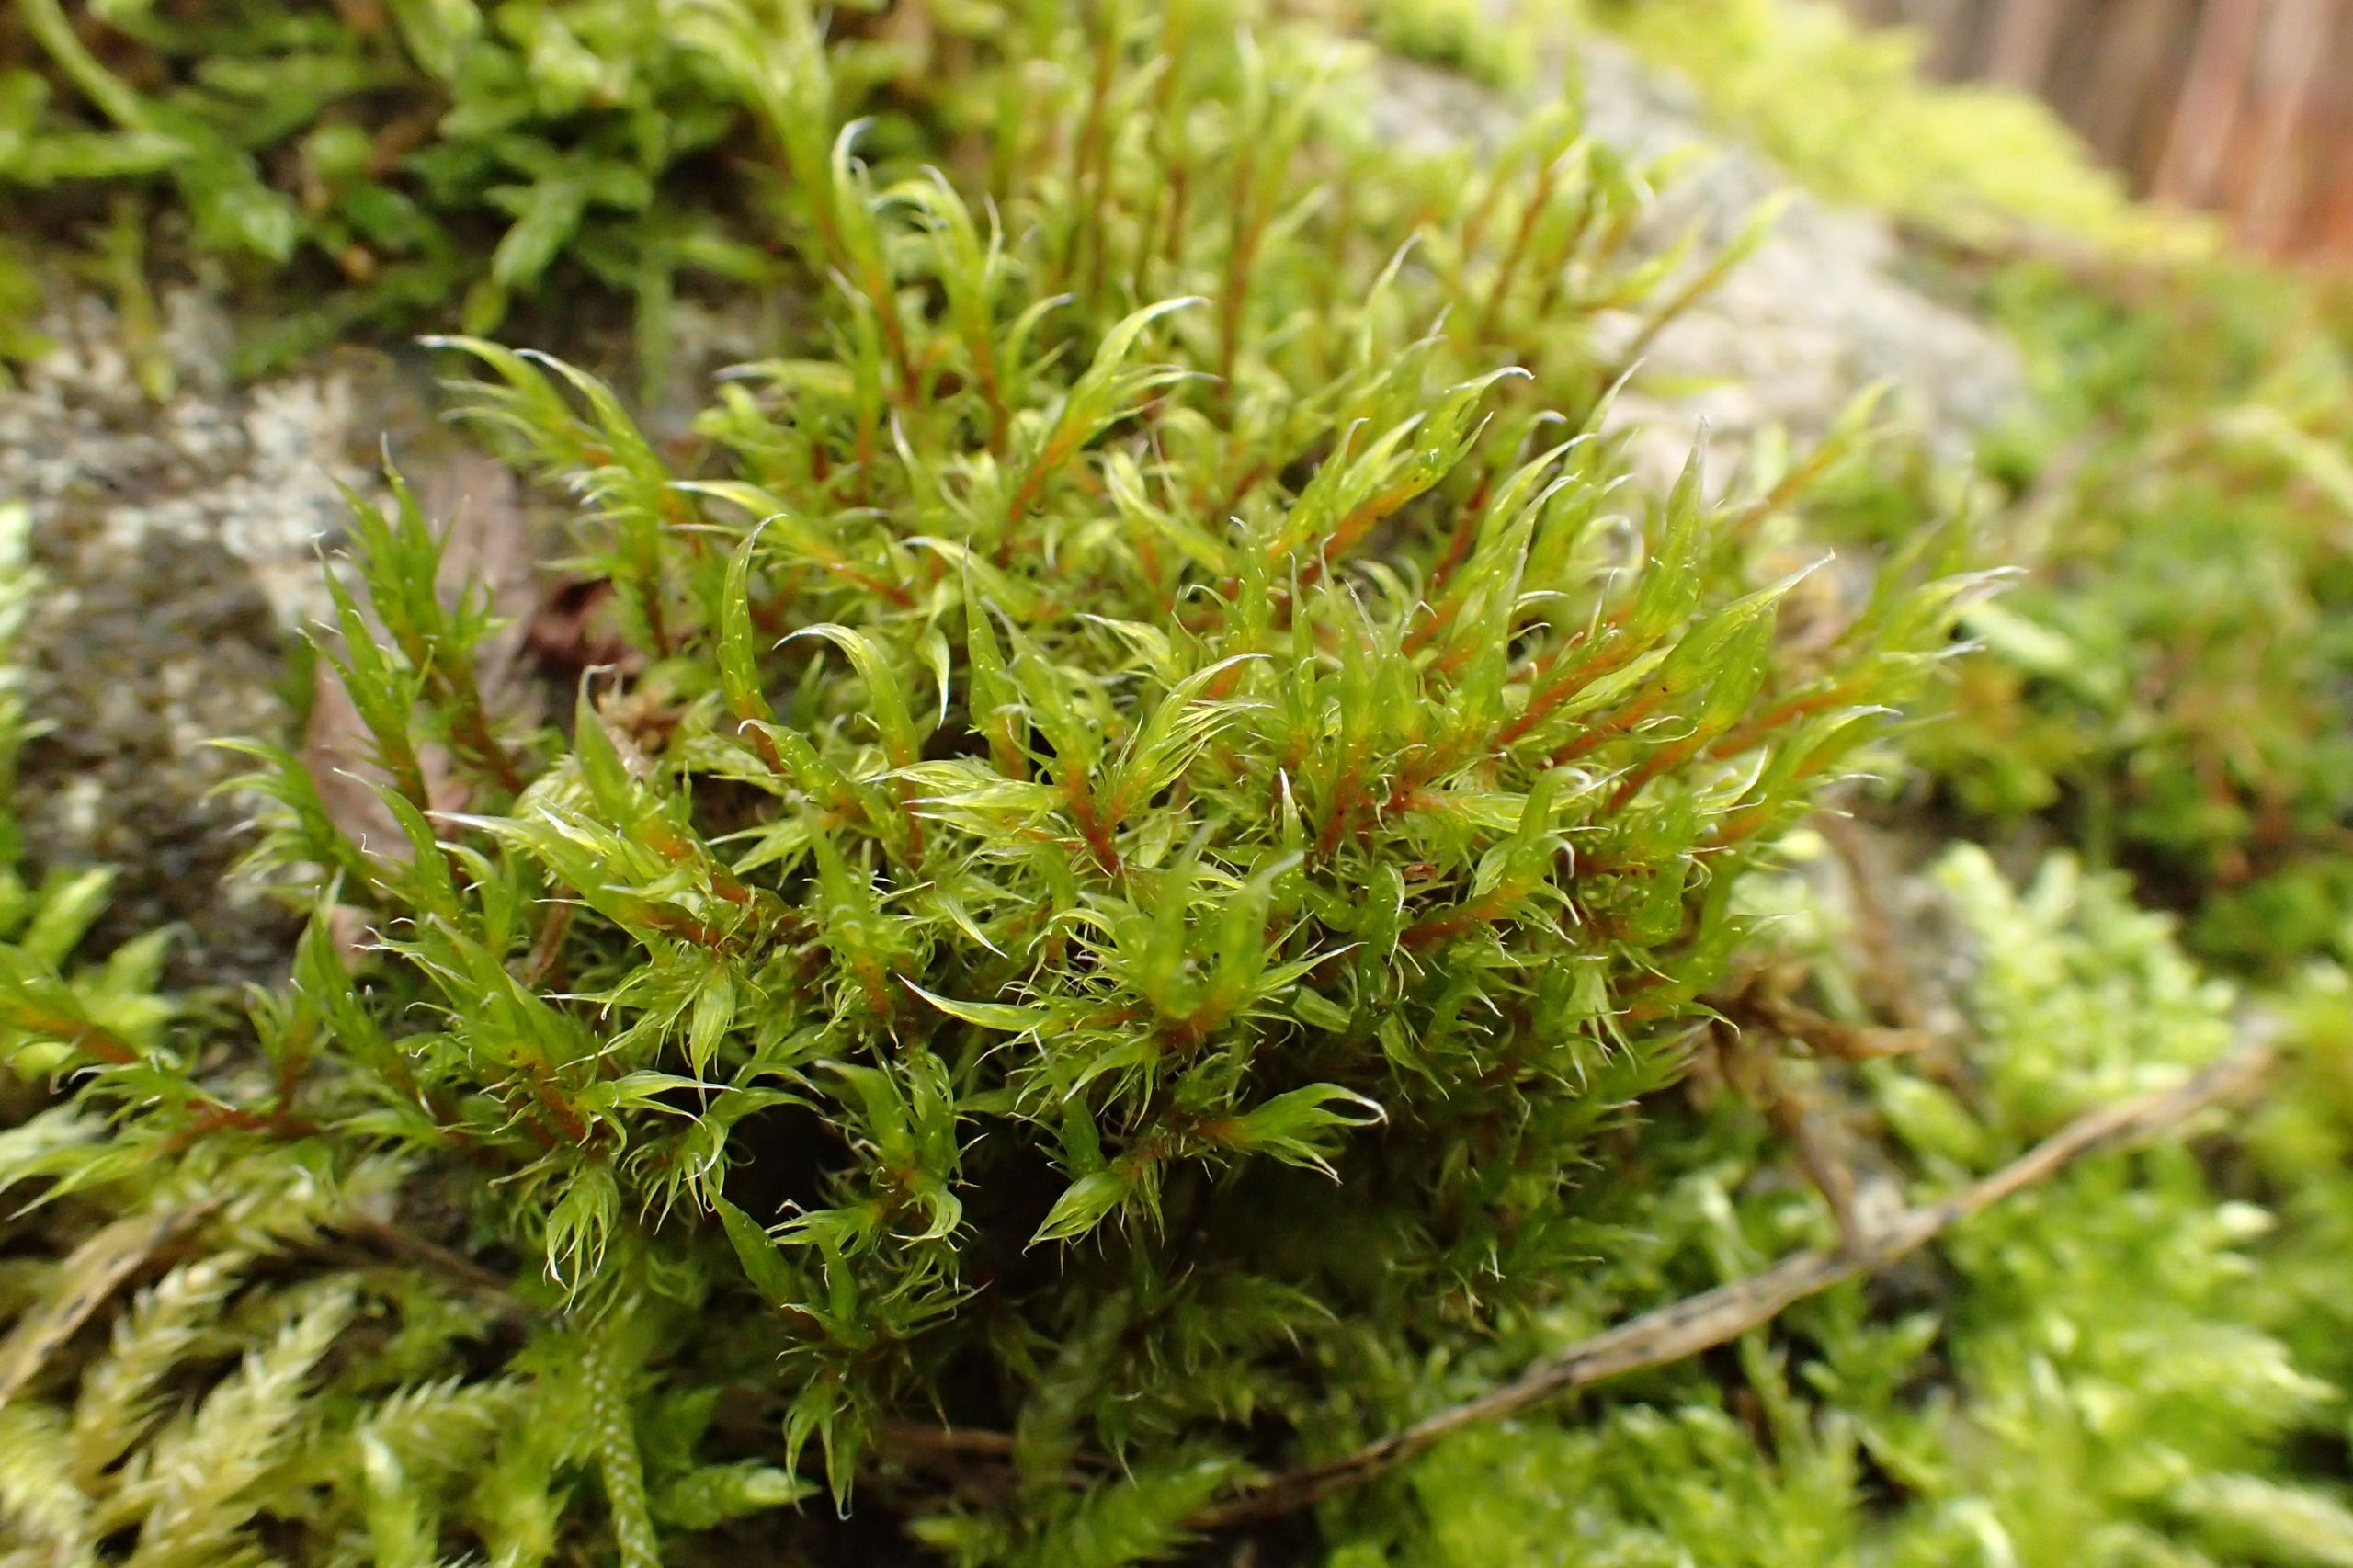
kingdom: Plantae
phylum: Bryophyta
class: Bryopsida
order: Grimmiales
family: Grimmiaceae
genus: Racomitrium
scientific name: Racomitrium lanuginosum
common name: Stor børstemos
